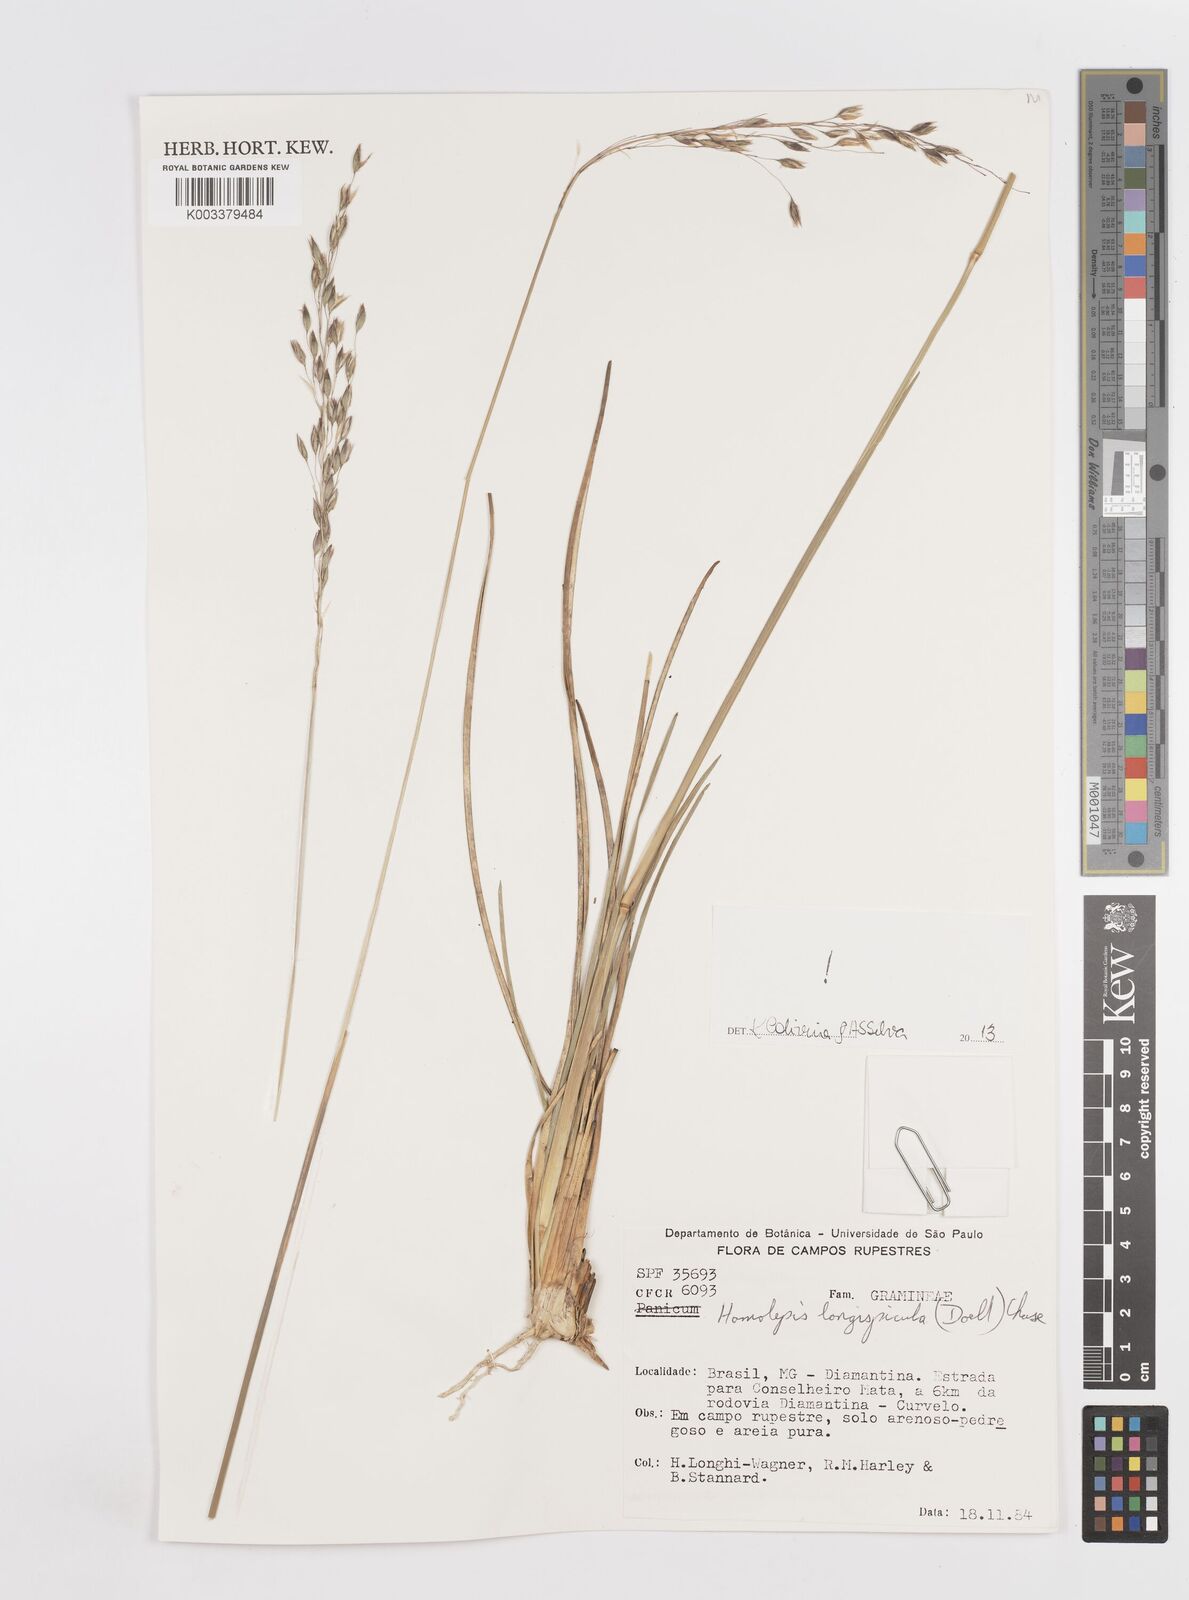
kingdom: Plantae
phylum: Tracheophyta
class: Liliopsida
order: Poales
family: Poaceae
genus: Homolepis
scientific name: Homolepis longispicula
